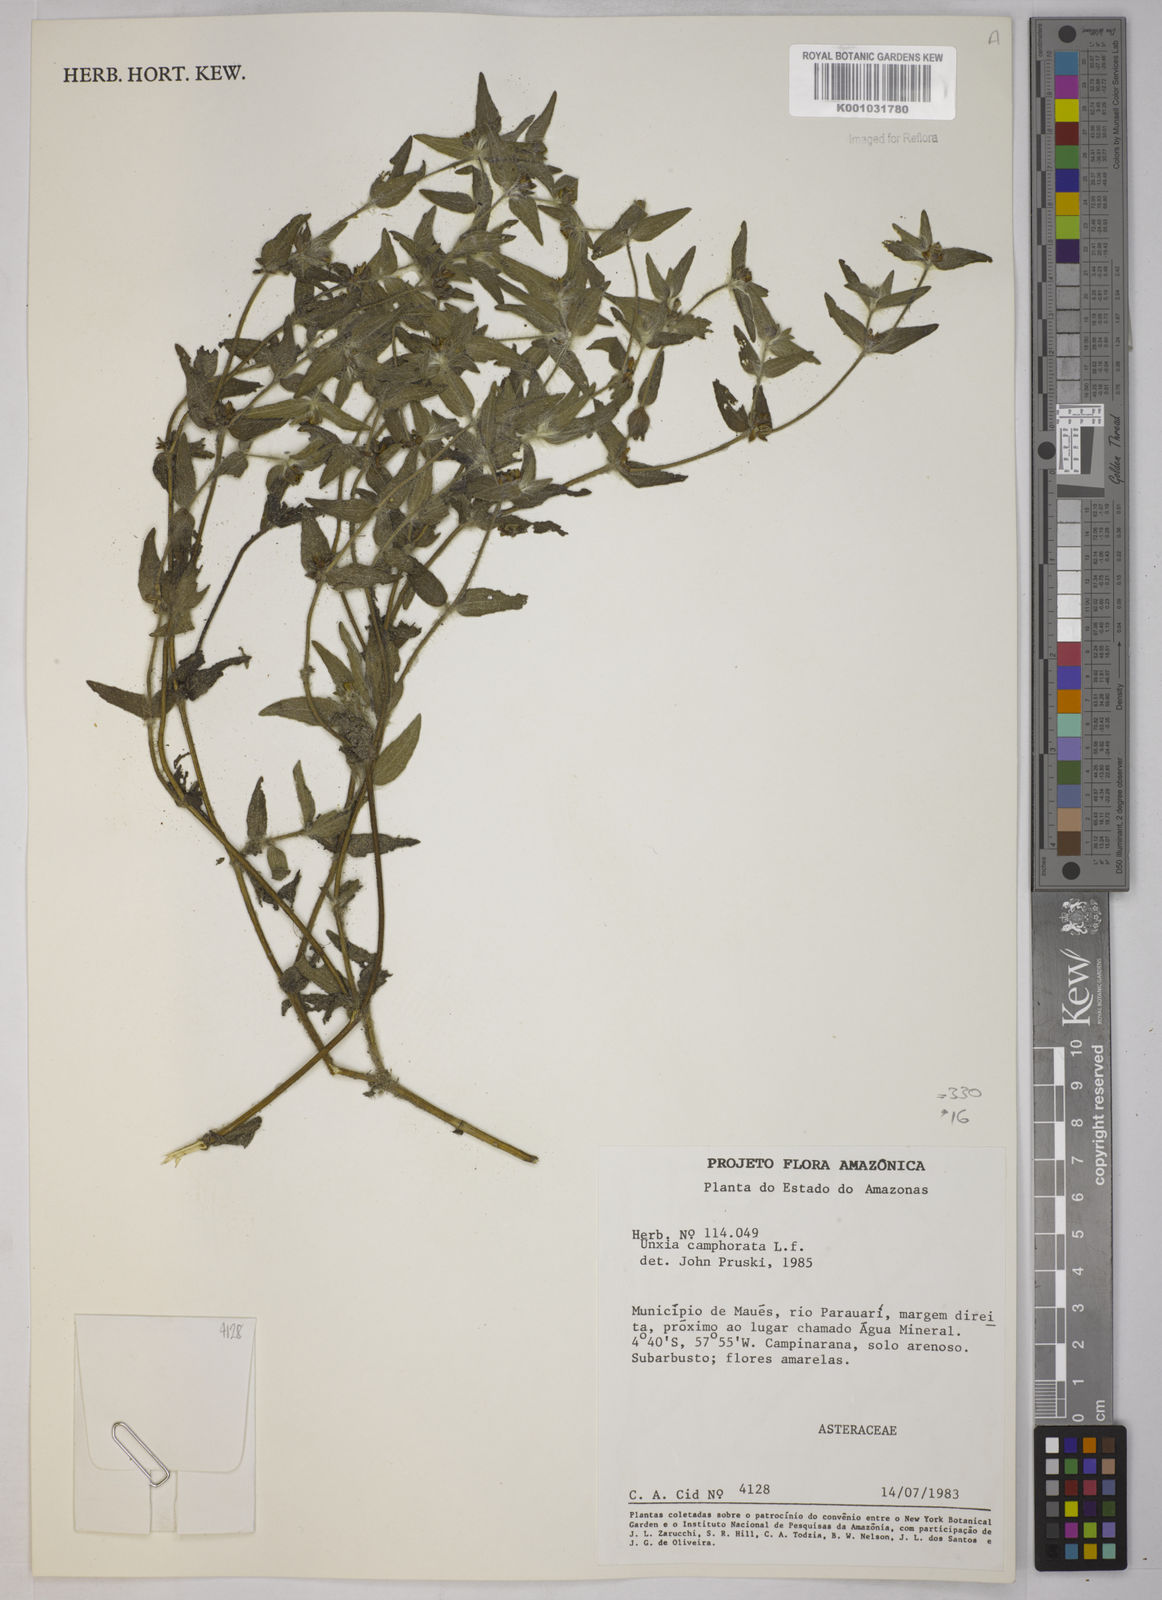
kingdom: Plantae
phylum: Tracheophyta
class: Magnoliopsida
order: Asterales
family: Asteraceae
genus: Unxia
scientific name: Unxia camphorata
